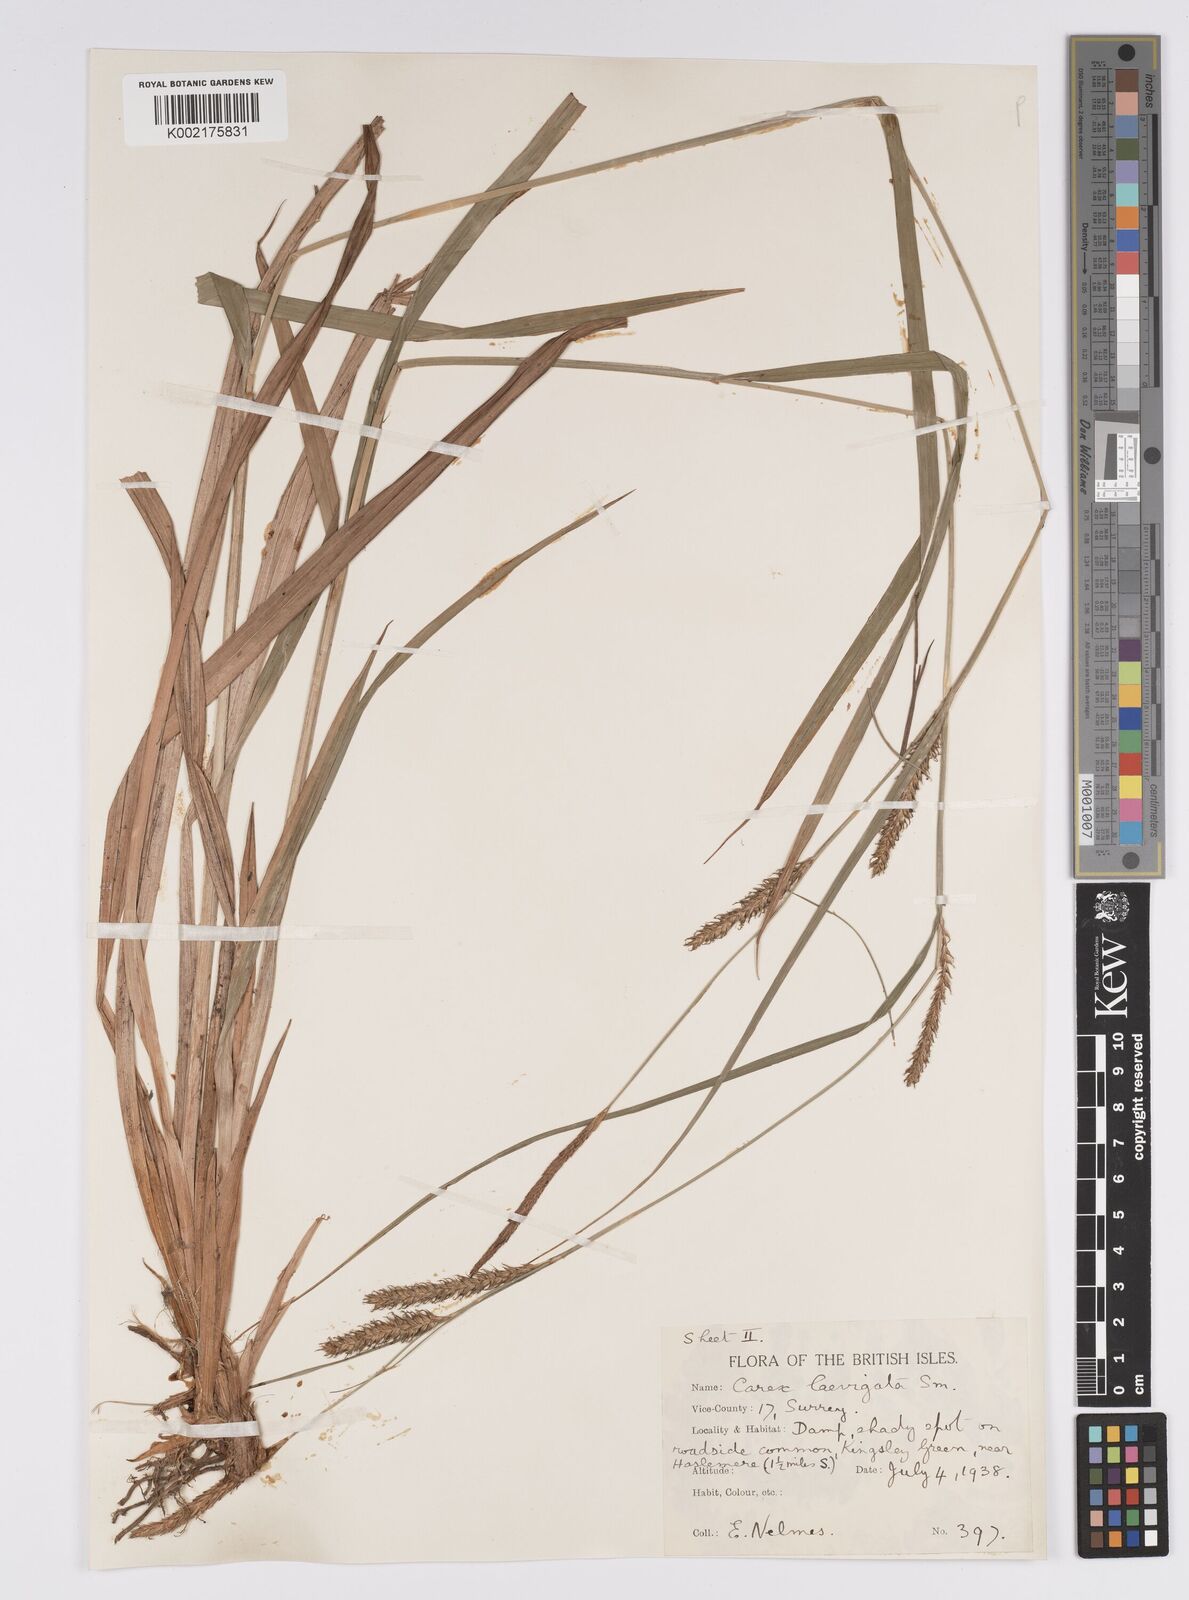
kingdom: Plantae
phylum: Tracheophyta
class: Liliopsida
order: Poales
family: Cyperaceae
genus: Carex
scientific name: Carex laevigata
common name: Smooth-stalked sedge
